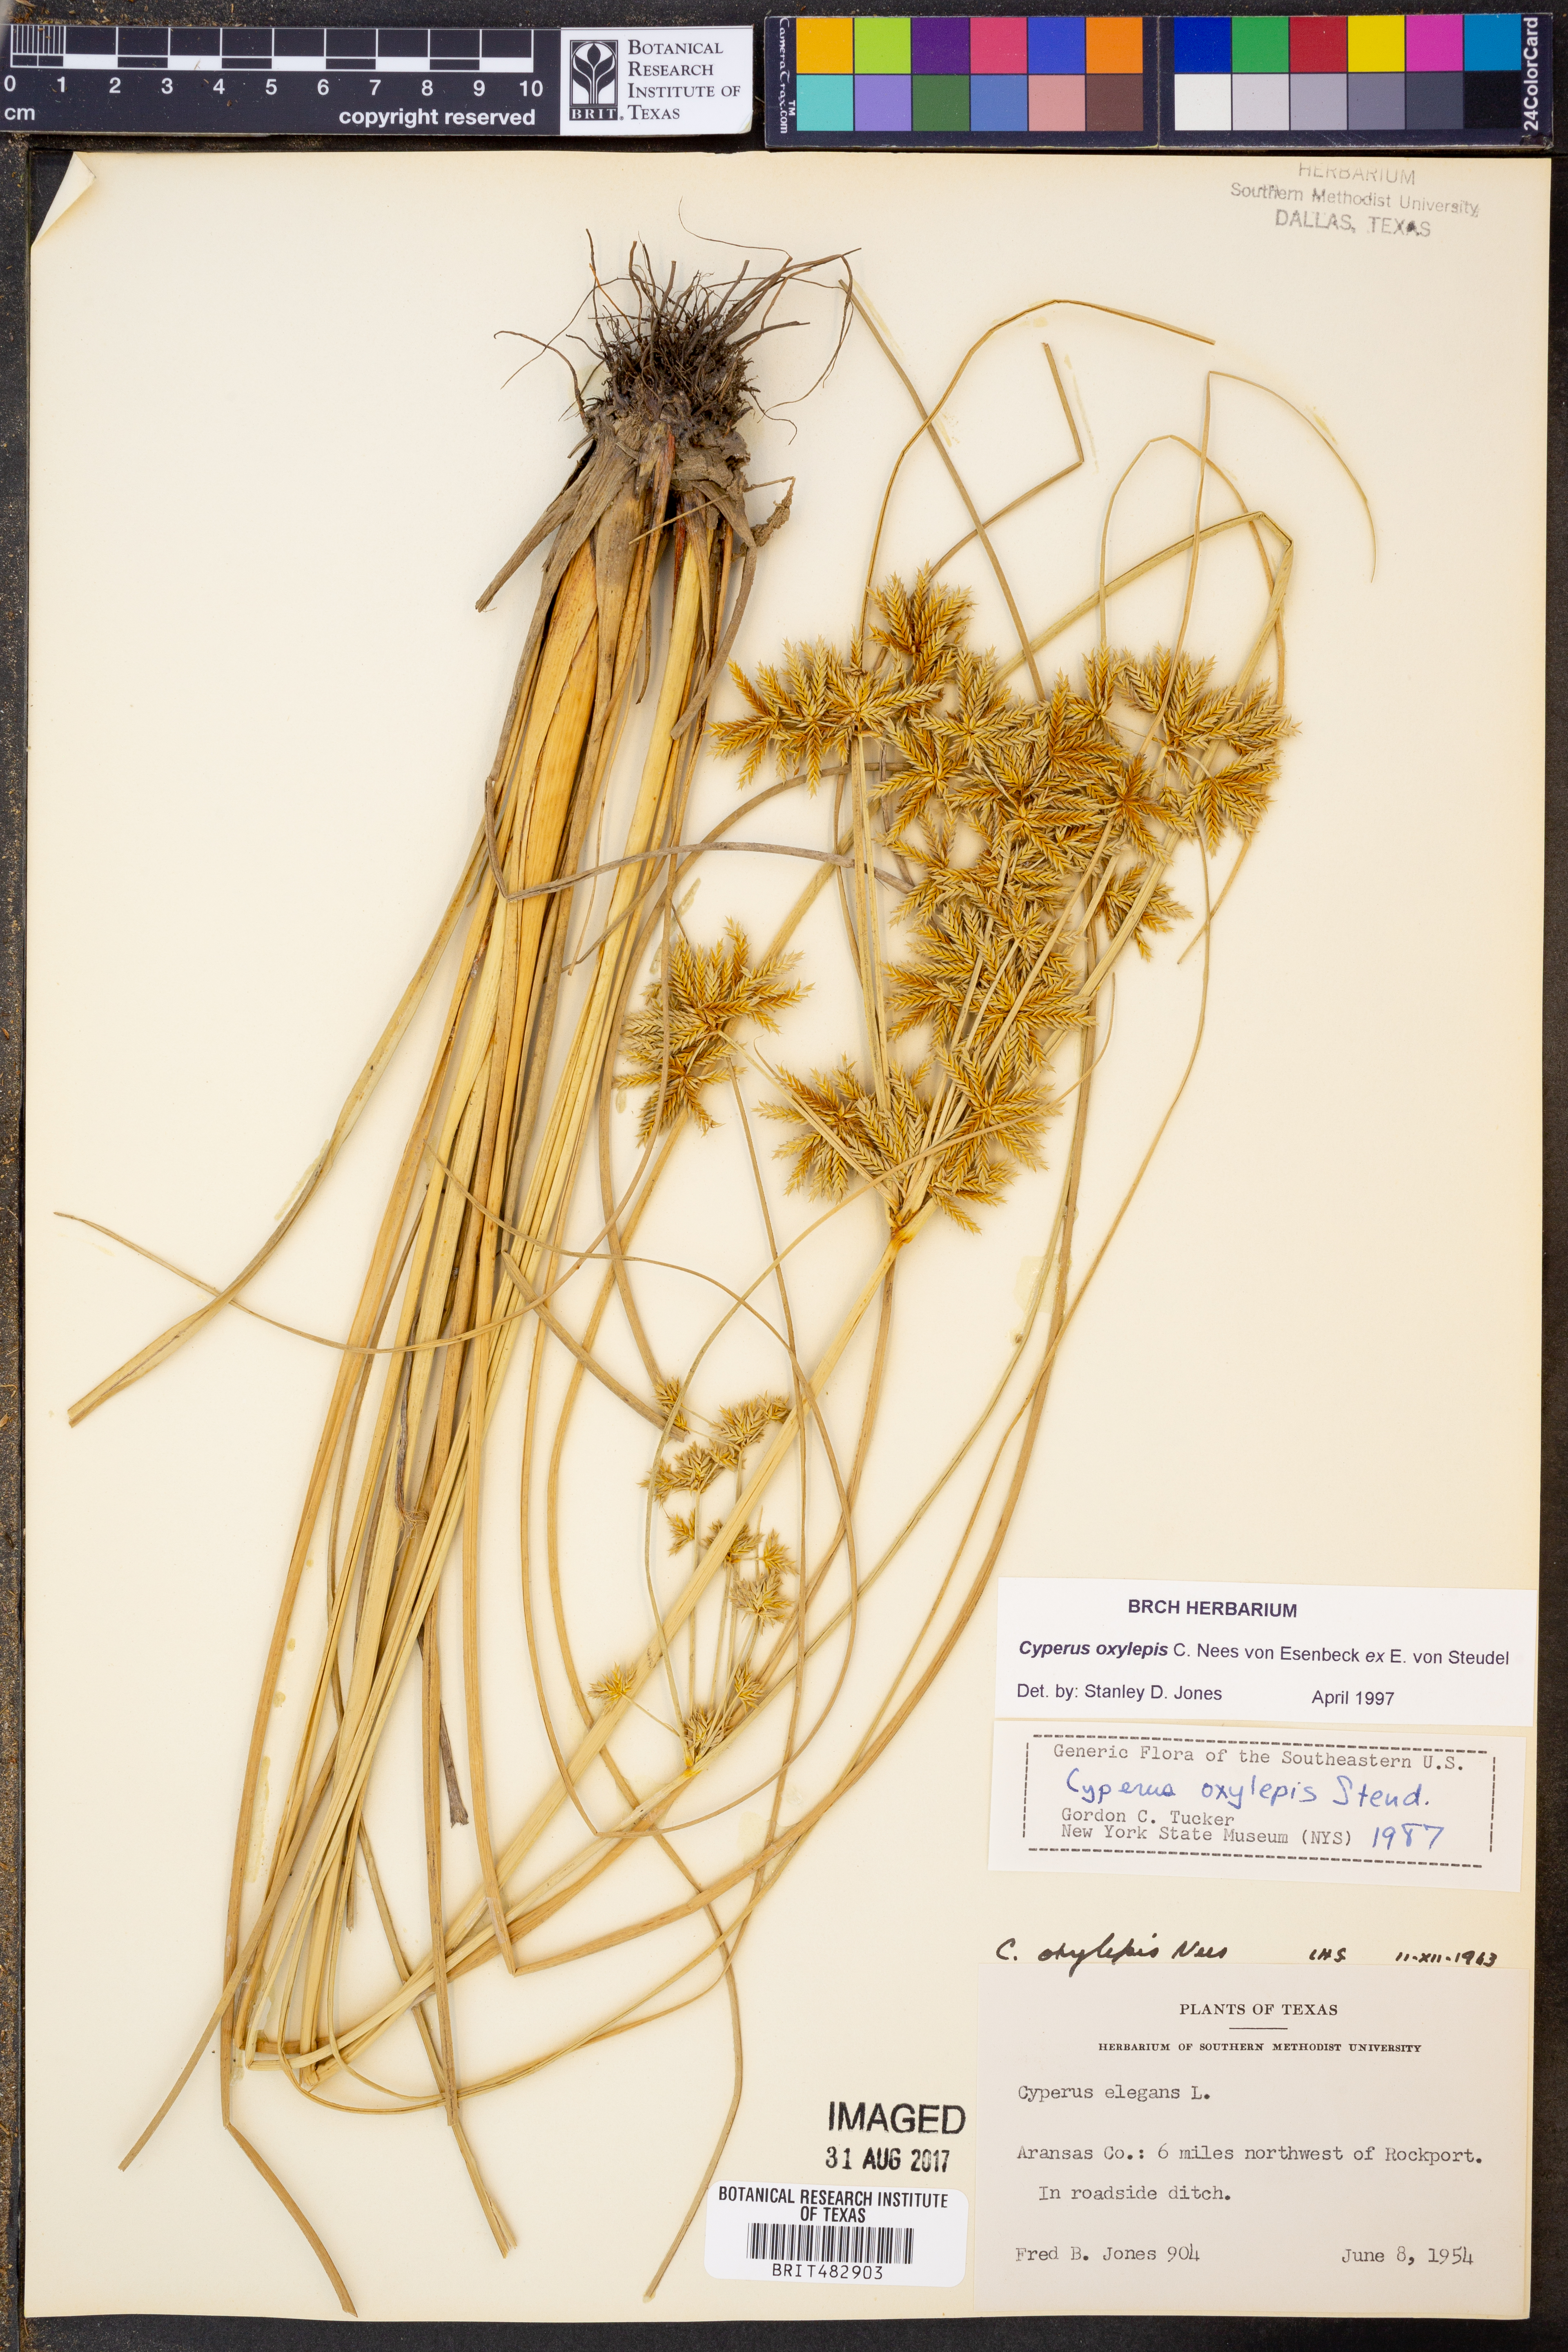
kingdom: Plantae
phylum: Tracheophyta
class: Liliopsida
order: Poales
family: Cyperaceae
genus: Cyperus
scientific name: Cyperus oxylepis
